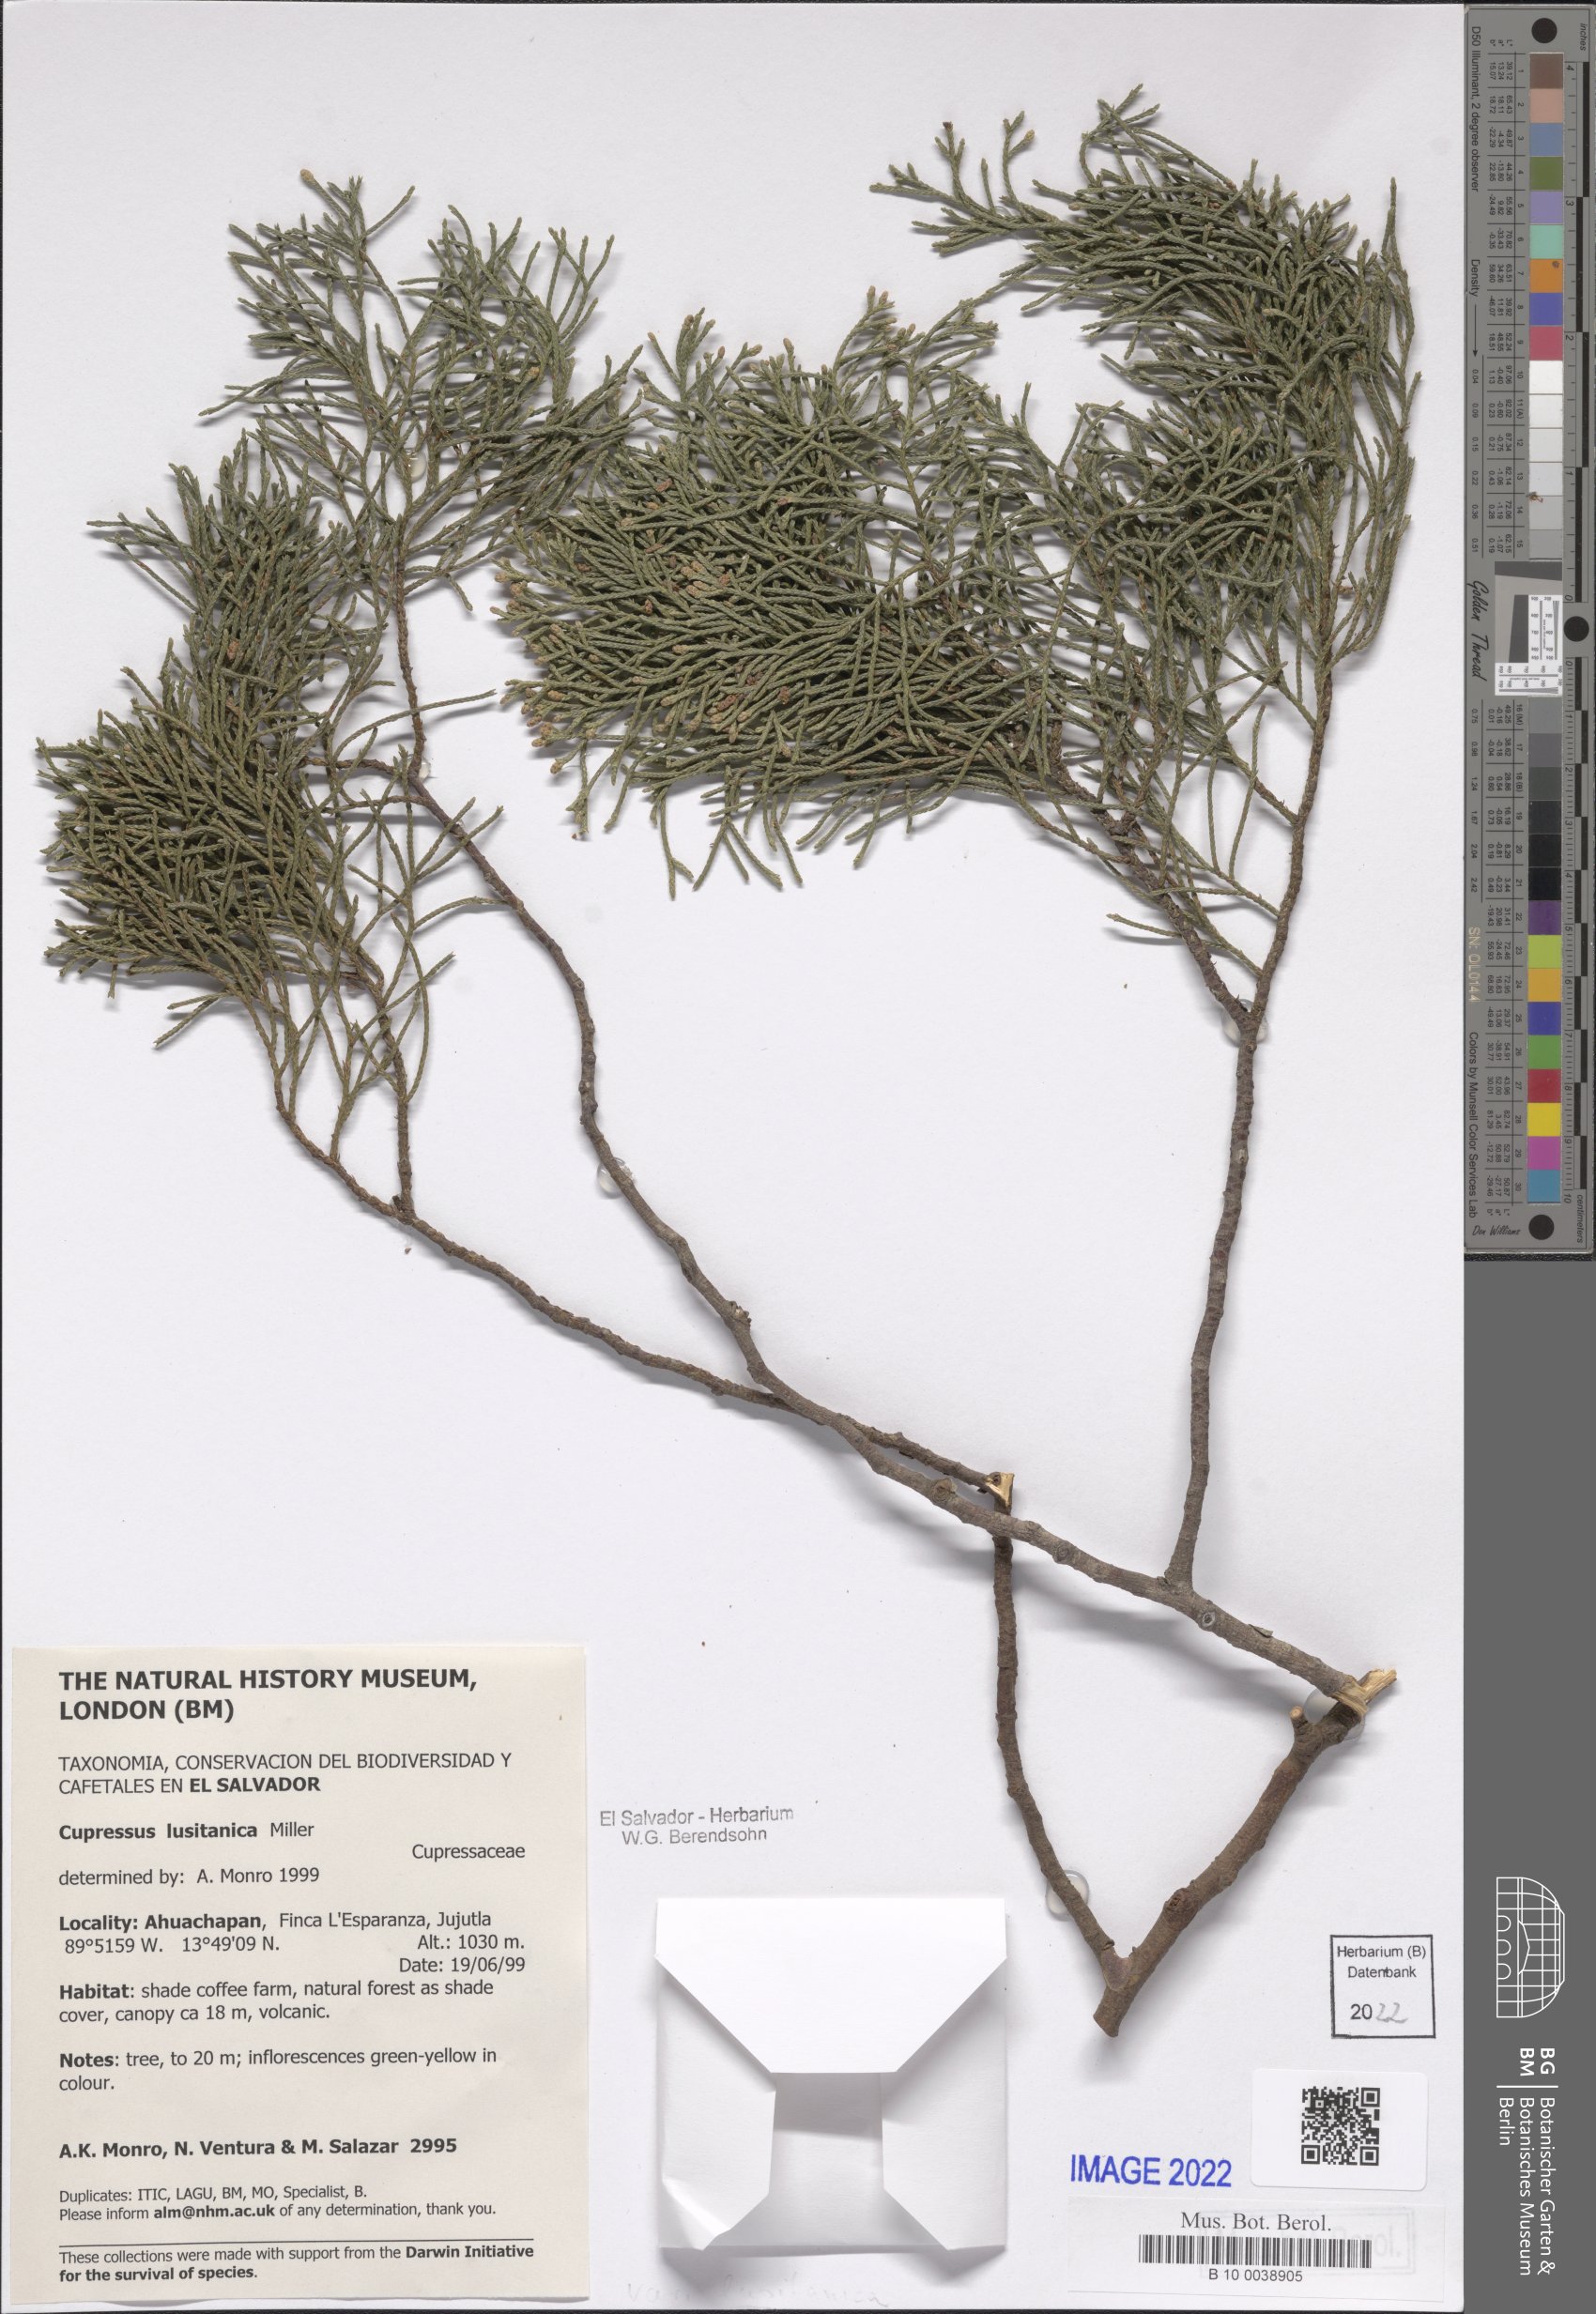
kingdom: Plantae
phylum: Tracheophyta
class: Pinopsida
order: Pinales
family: Cupressaceae
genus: Cupressus
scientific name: Cupressus lusitanica
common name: Mexican cypress
